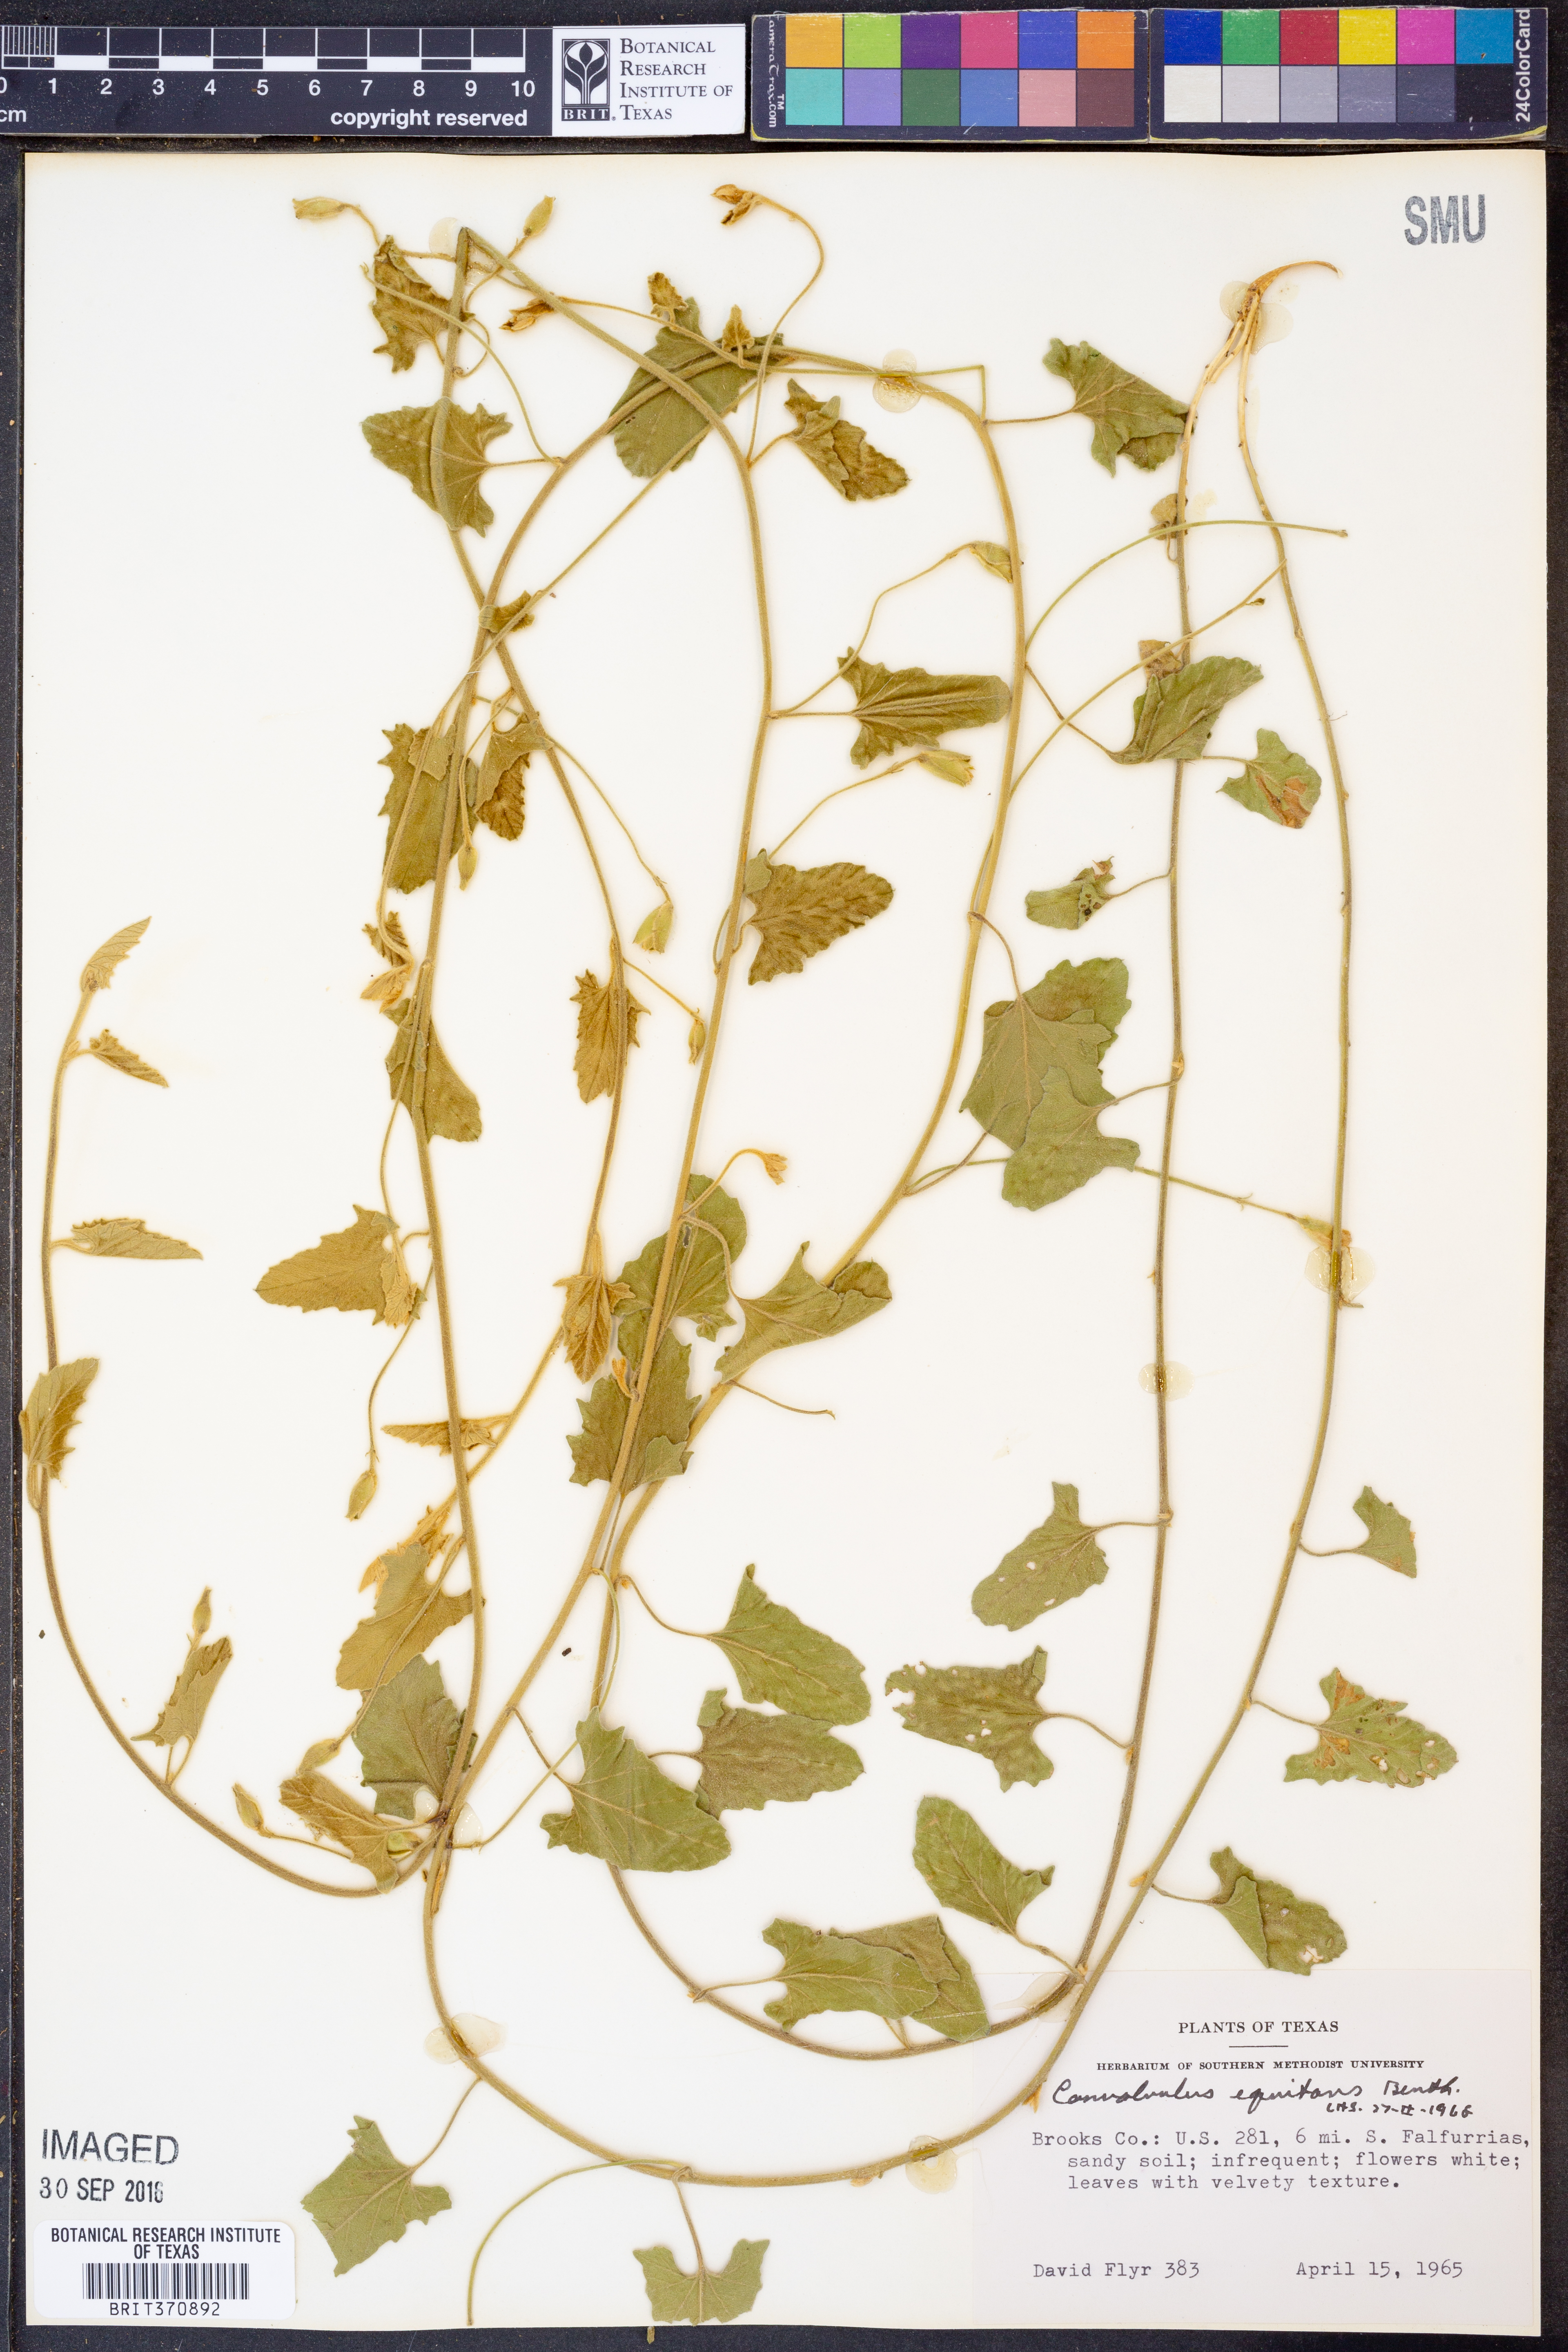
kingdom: Plantae
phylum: Tracheophyta
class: Magnoliopsida
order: Solanales
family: Convolvulaceae
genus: Convolvulus
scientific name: Convolvulus equitans
